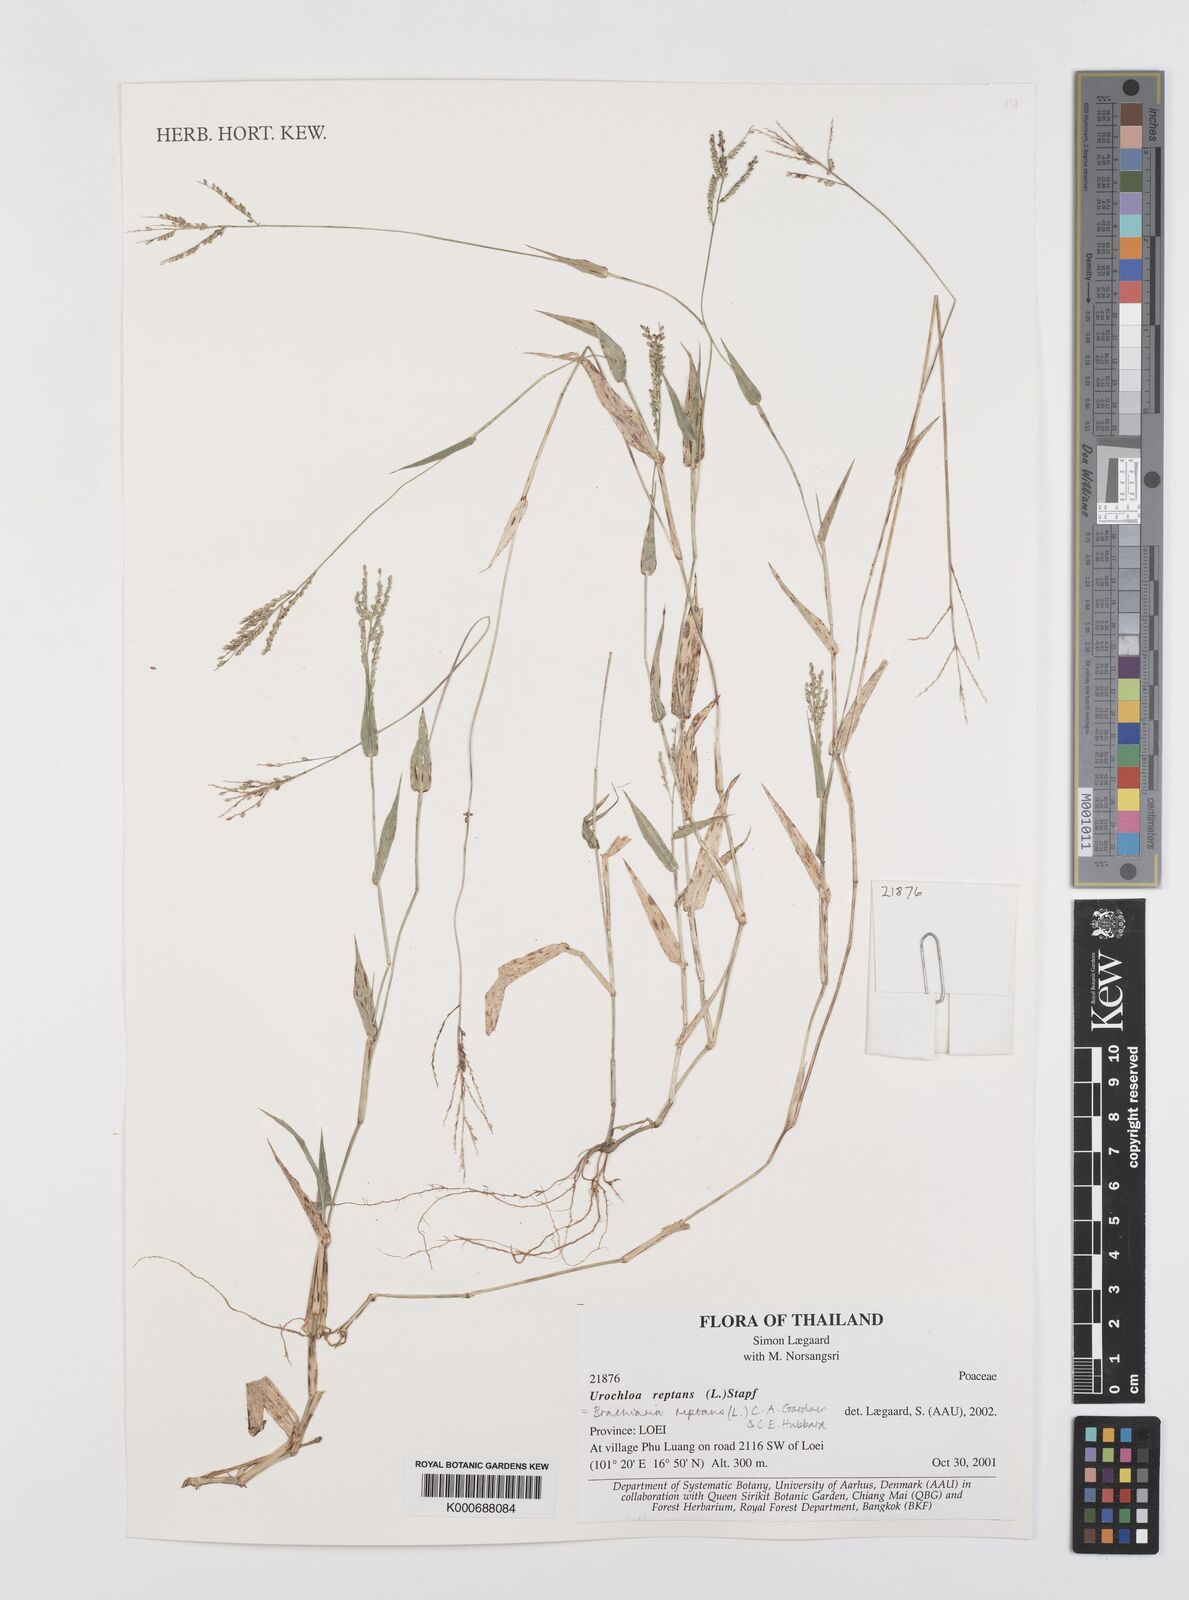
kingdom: Plantae
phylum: Tracheophyta
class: Liliopsida
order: Poales
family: Poaceae
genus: Urochloa
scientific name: Urochloa reptans
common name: Sprawling signalgrass
